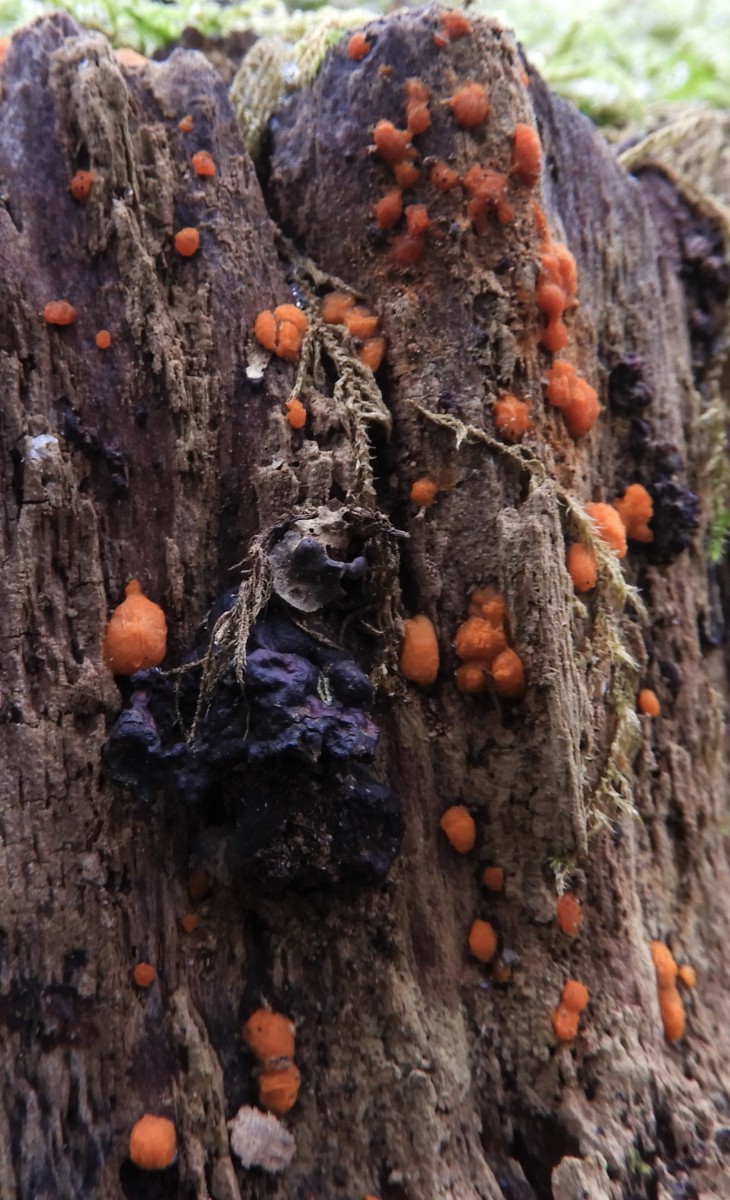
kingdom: Fungi
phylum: Basidiomycota
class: Dacrymycetes
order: Dacrymycetales
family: Dacrymycetaceae
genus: Dacrymyces
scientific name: Dacrymyces stillatus
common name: almindelig tåresvamp
